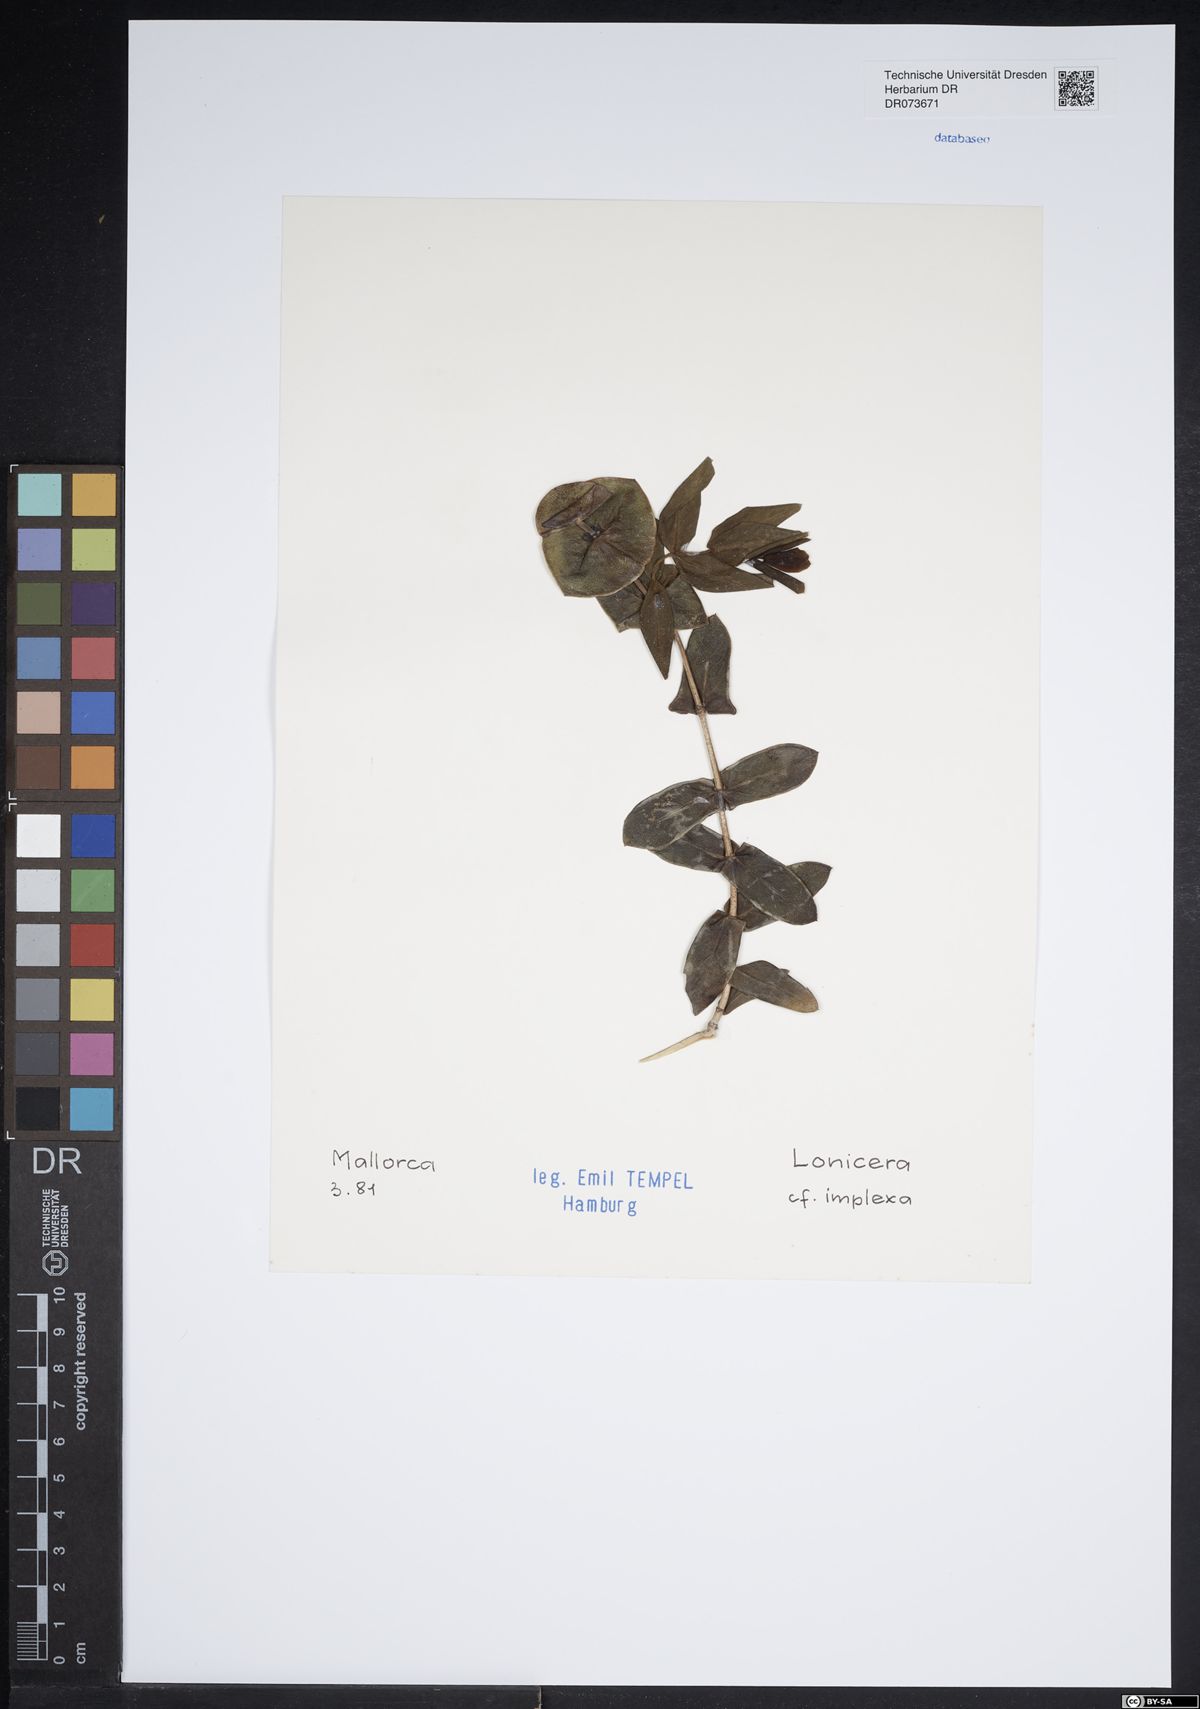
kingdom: Plantae
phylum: Tracheophyta
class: Magnoliopsida
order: Dipsacales
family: Caprifoliaceae
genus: Lonicera
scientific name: Lonicera implexa
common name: Minorca honeysuckle
